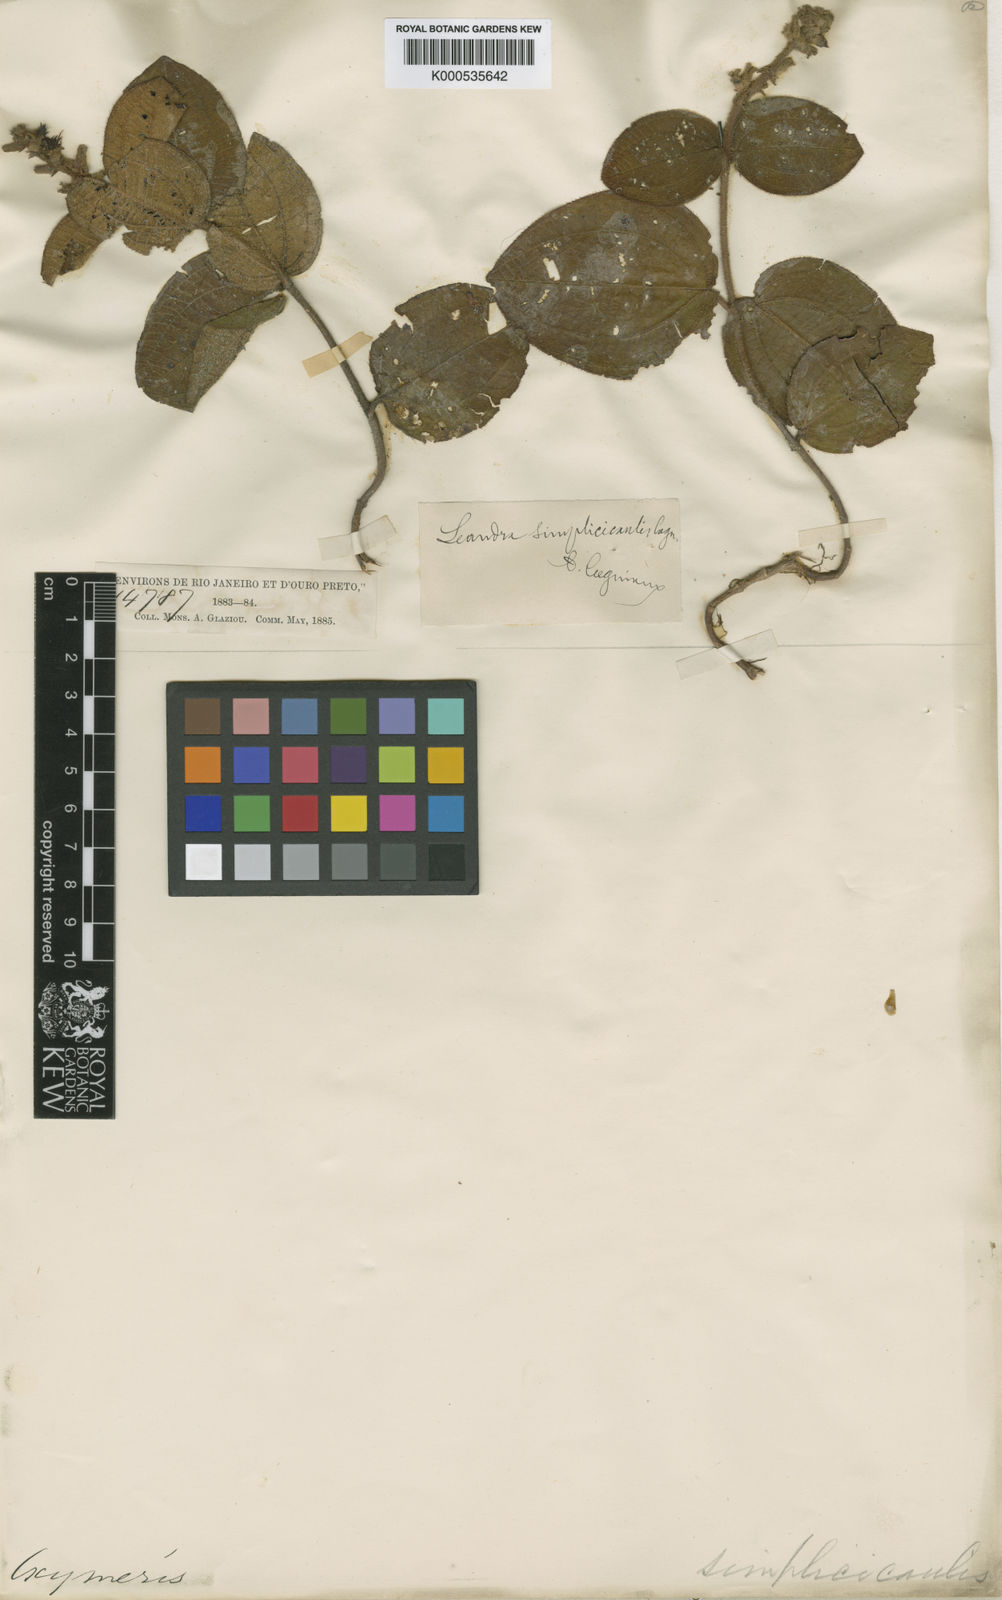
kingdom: Plantae
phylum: Tracheophyta
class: Magnoliopsida
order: Myrtales
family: Melastomataceae
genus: Miconia
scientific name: Miconia simplicicaulis
